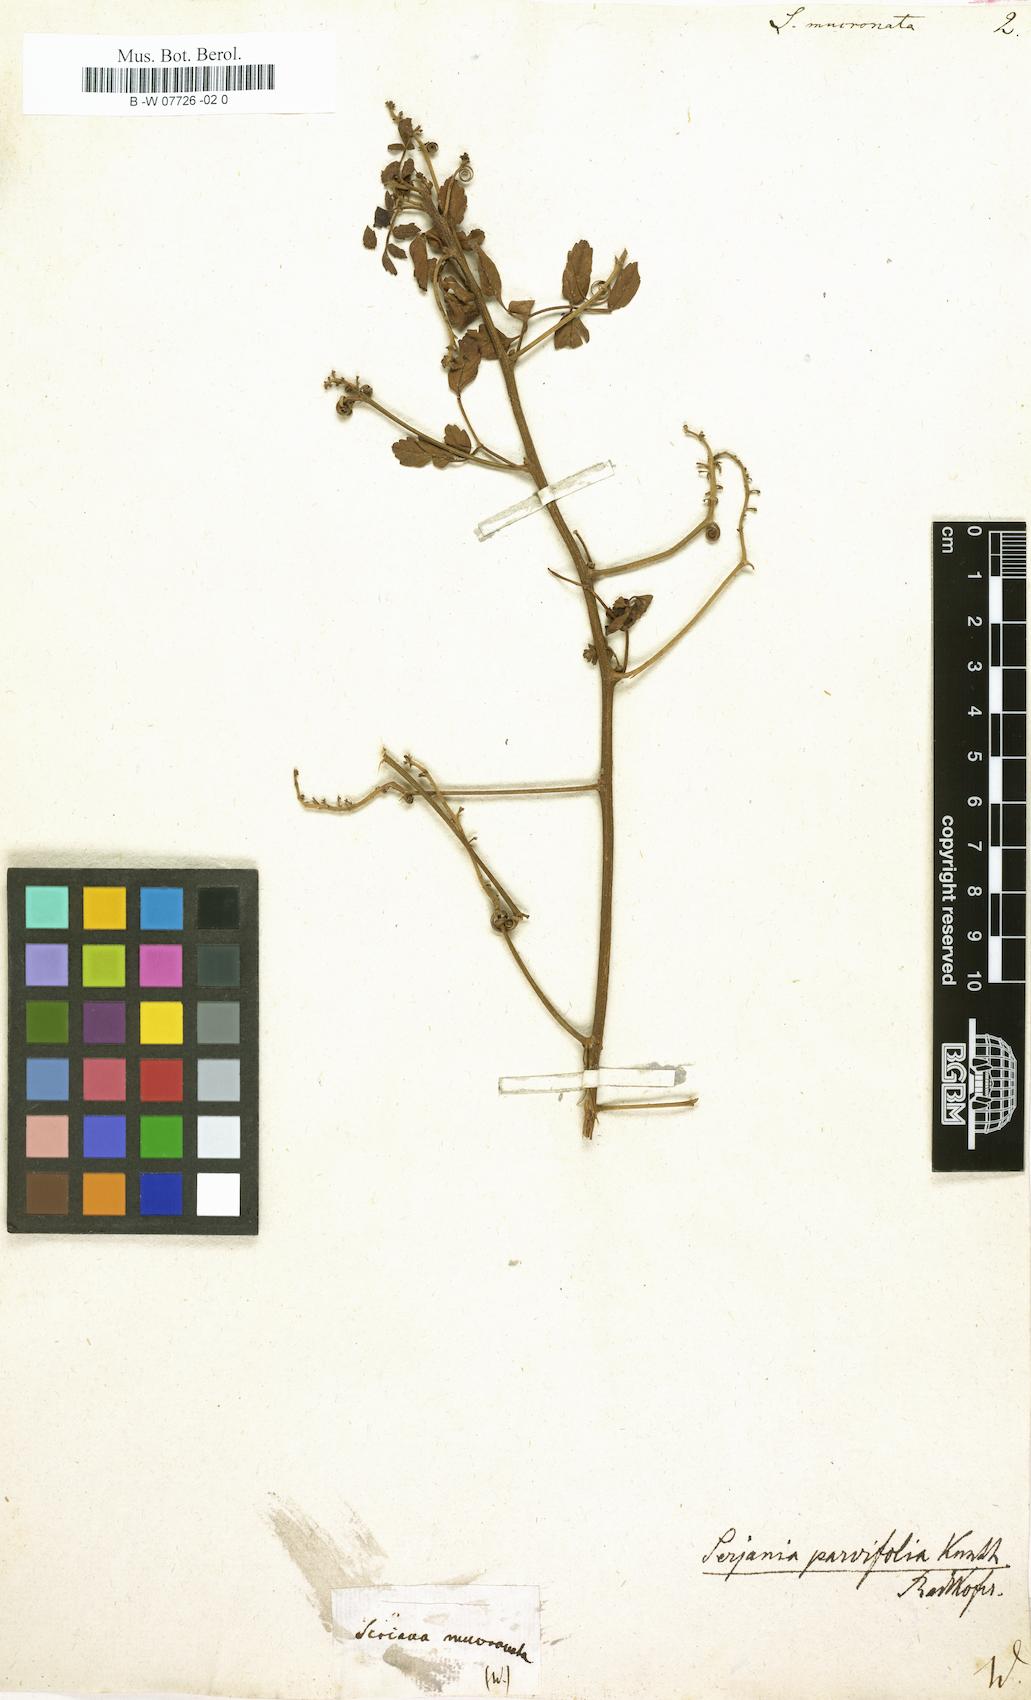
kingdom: Plantae
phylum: Tracheophyta
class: Magnoliopsida
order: Sapindales
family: Sapindaceae
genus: Serjania
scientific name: Serjania mucronulata
